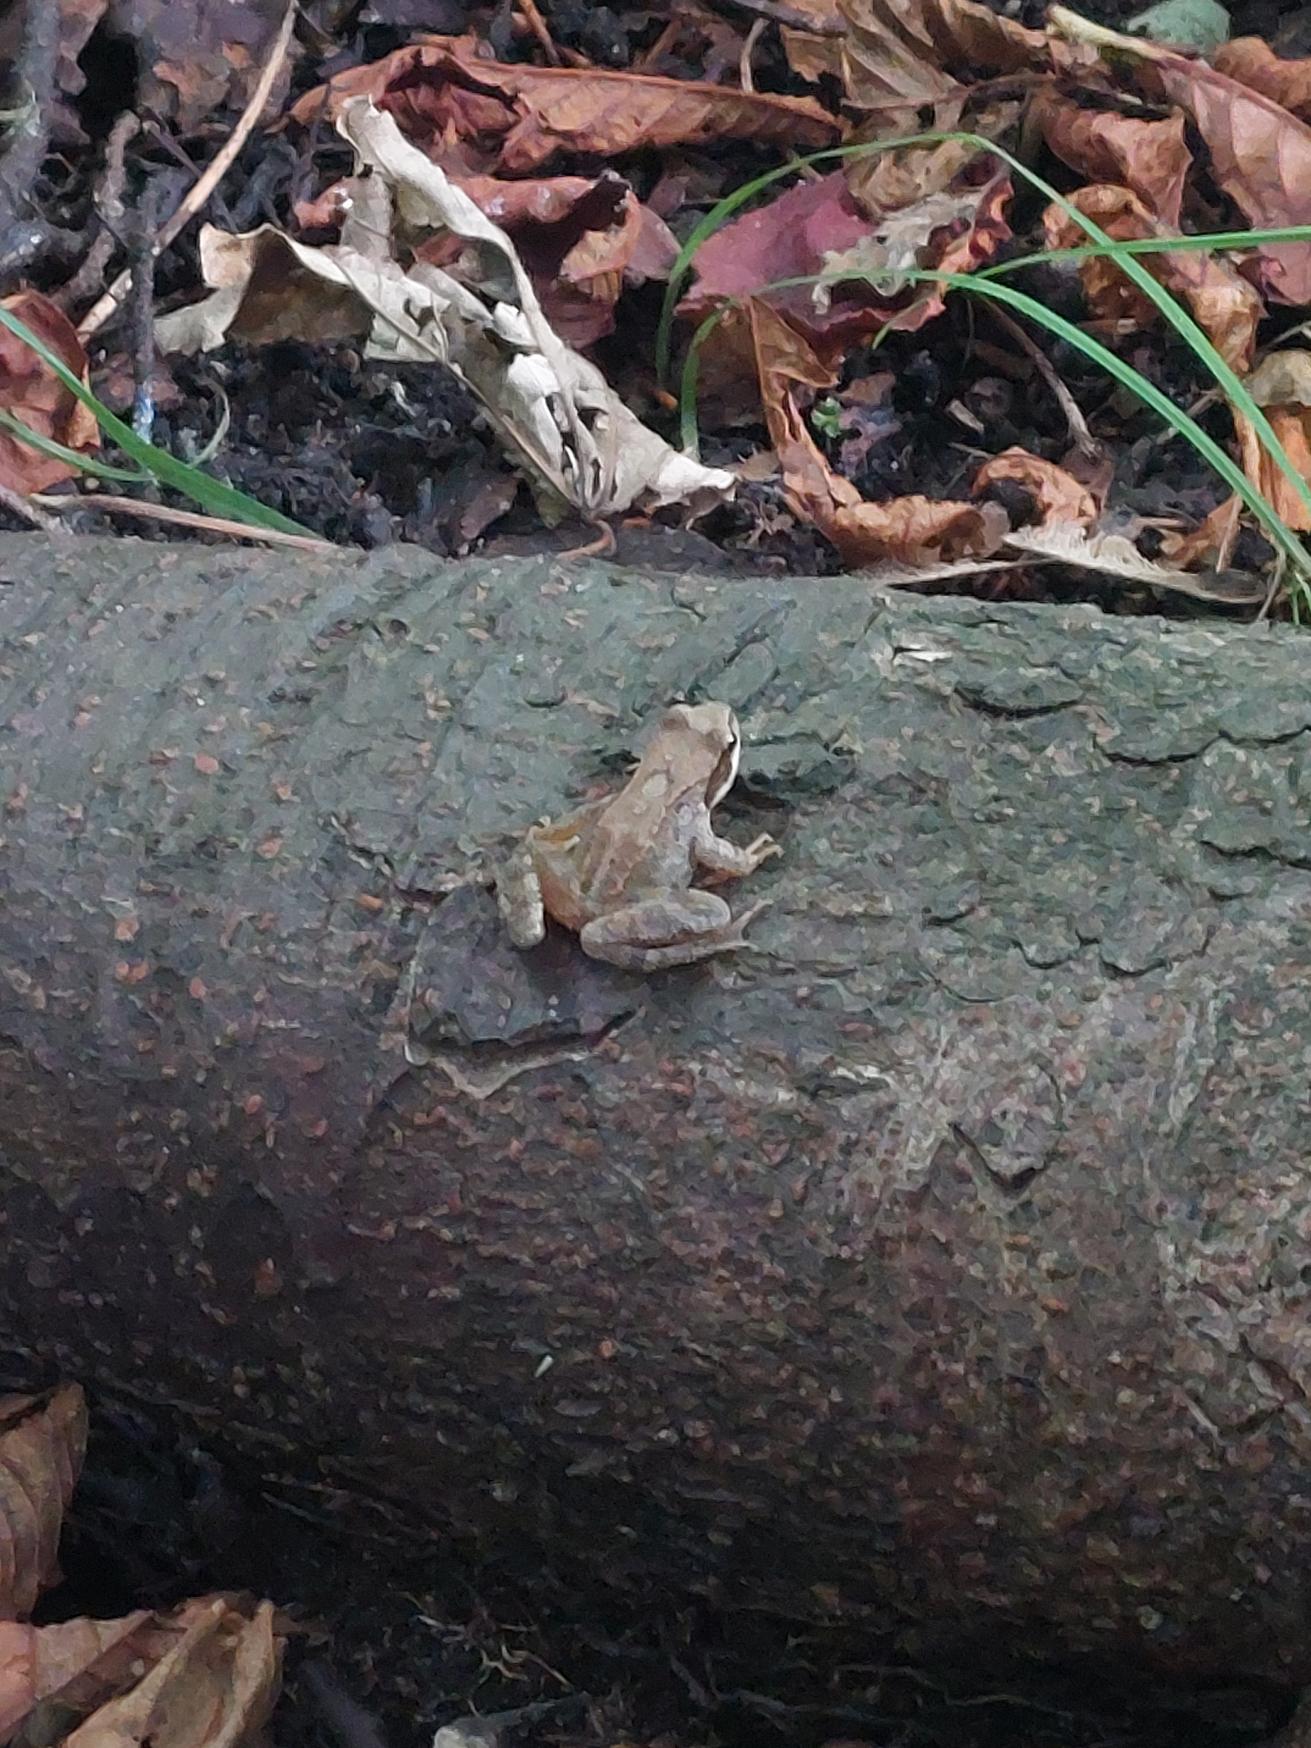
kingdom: Animalia
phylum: Chordata
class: Amphibia
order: Anura
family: Ranidae
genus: Rana
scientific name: Rana temporaria
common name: Butsnudet frø
